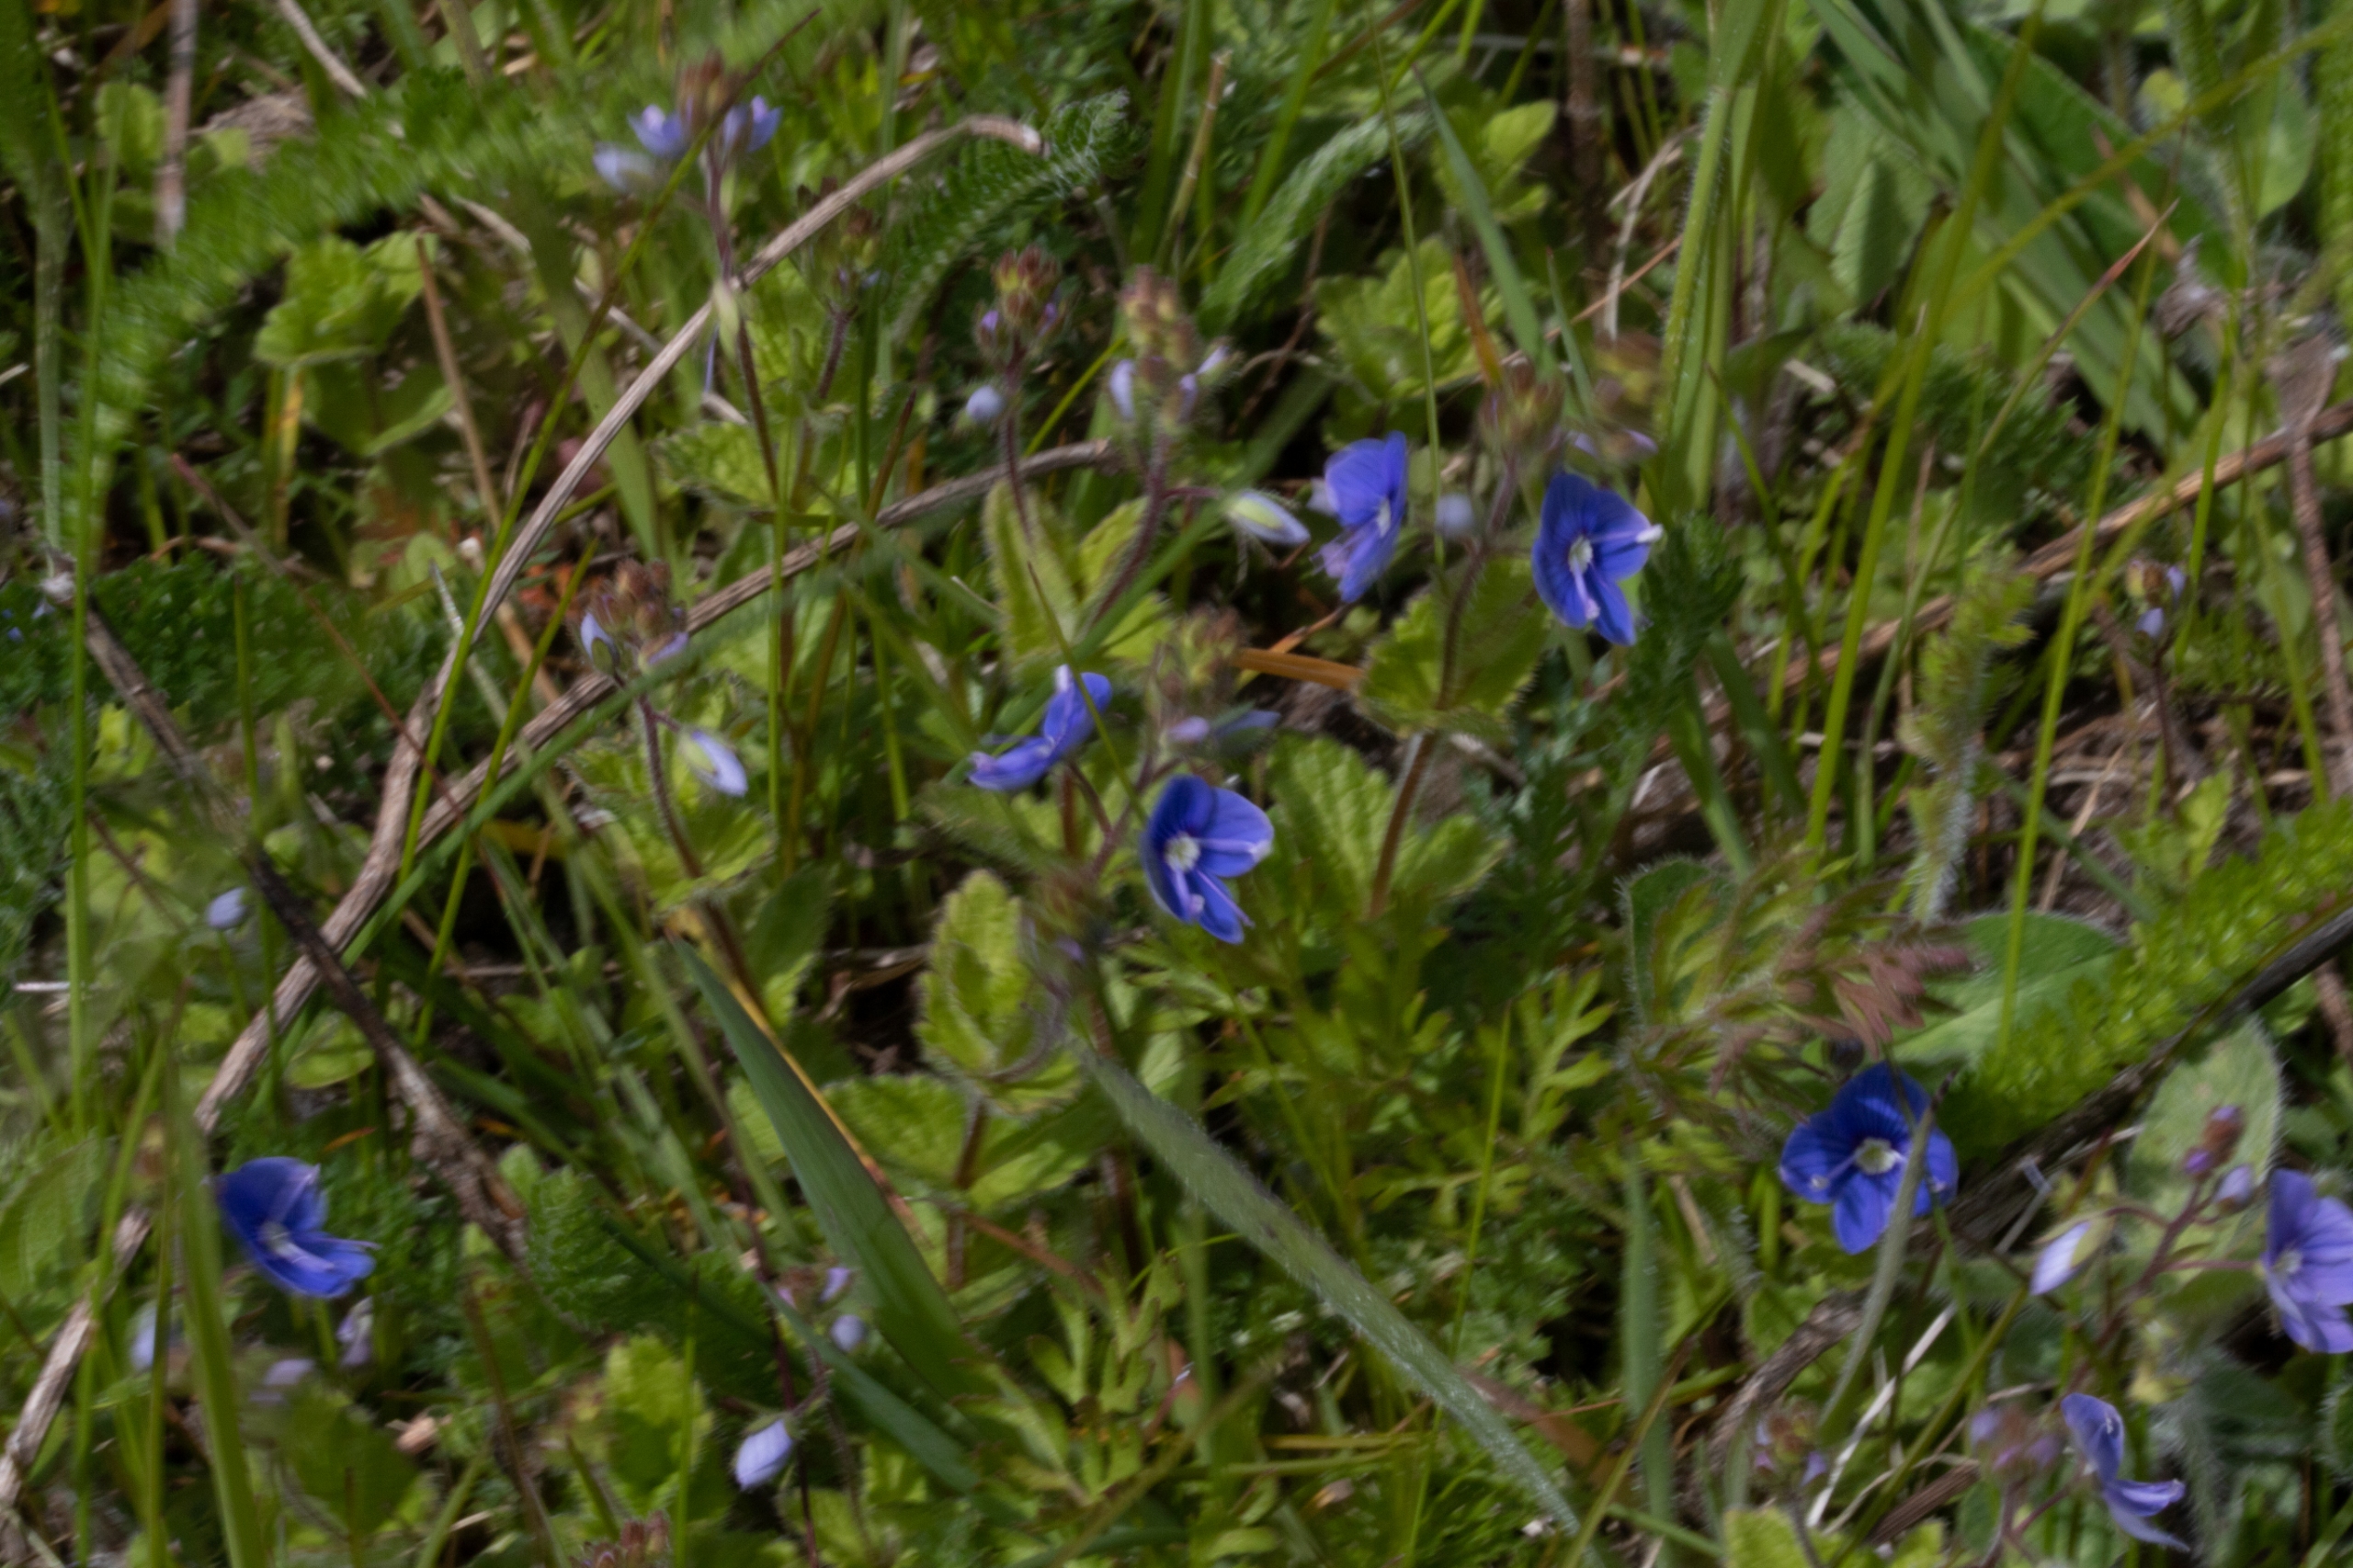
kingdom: Plantae
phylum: Tracheophyta
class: Magnoliopsida
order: Lamiales
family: Plantaginaceae
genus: Veronica
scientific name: Veronica chamaedrys
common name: Tveskægget ærenpris
